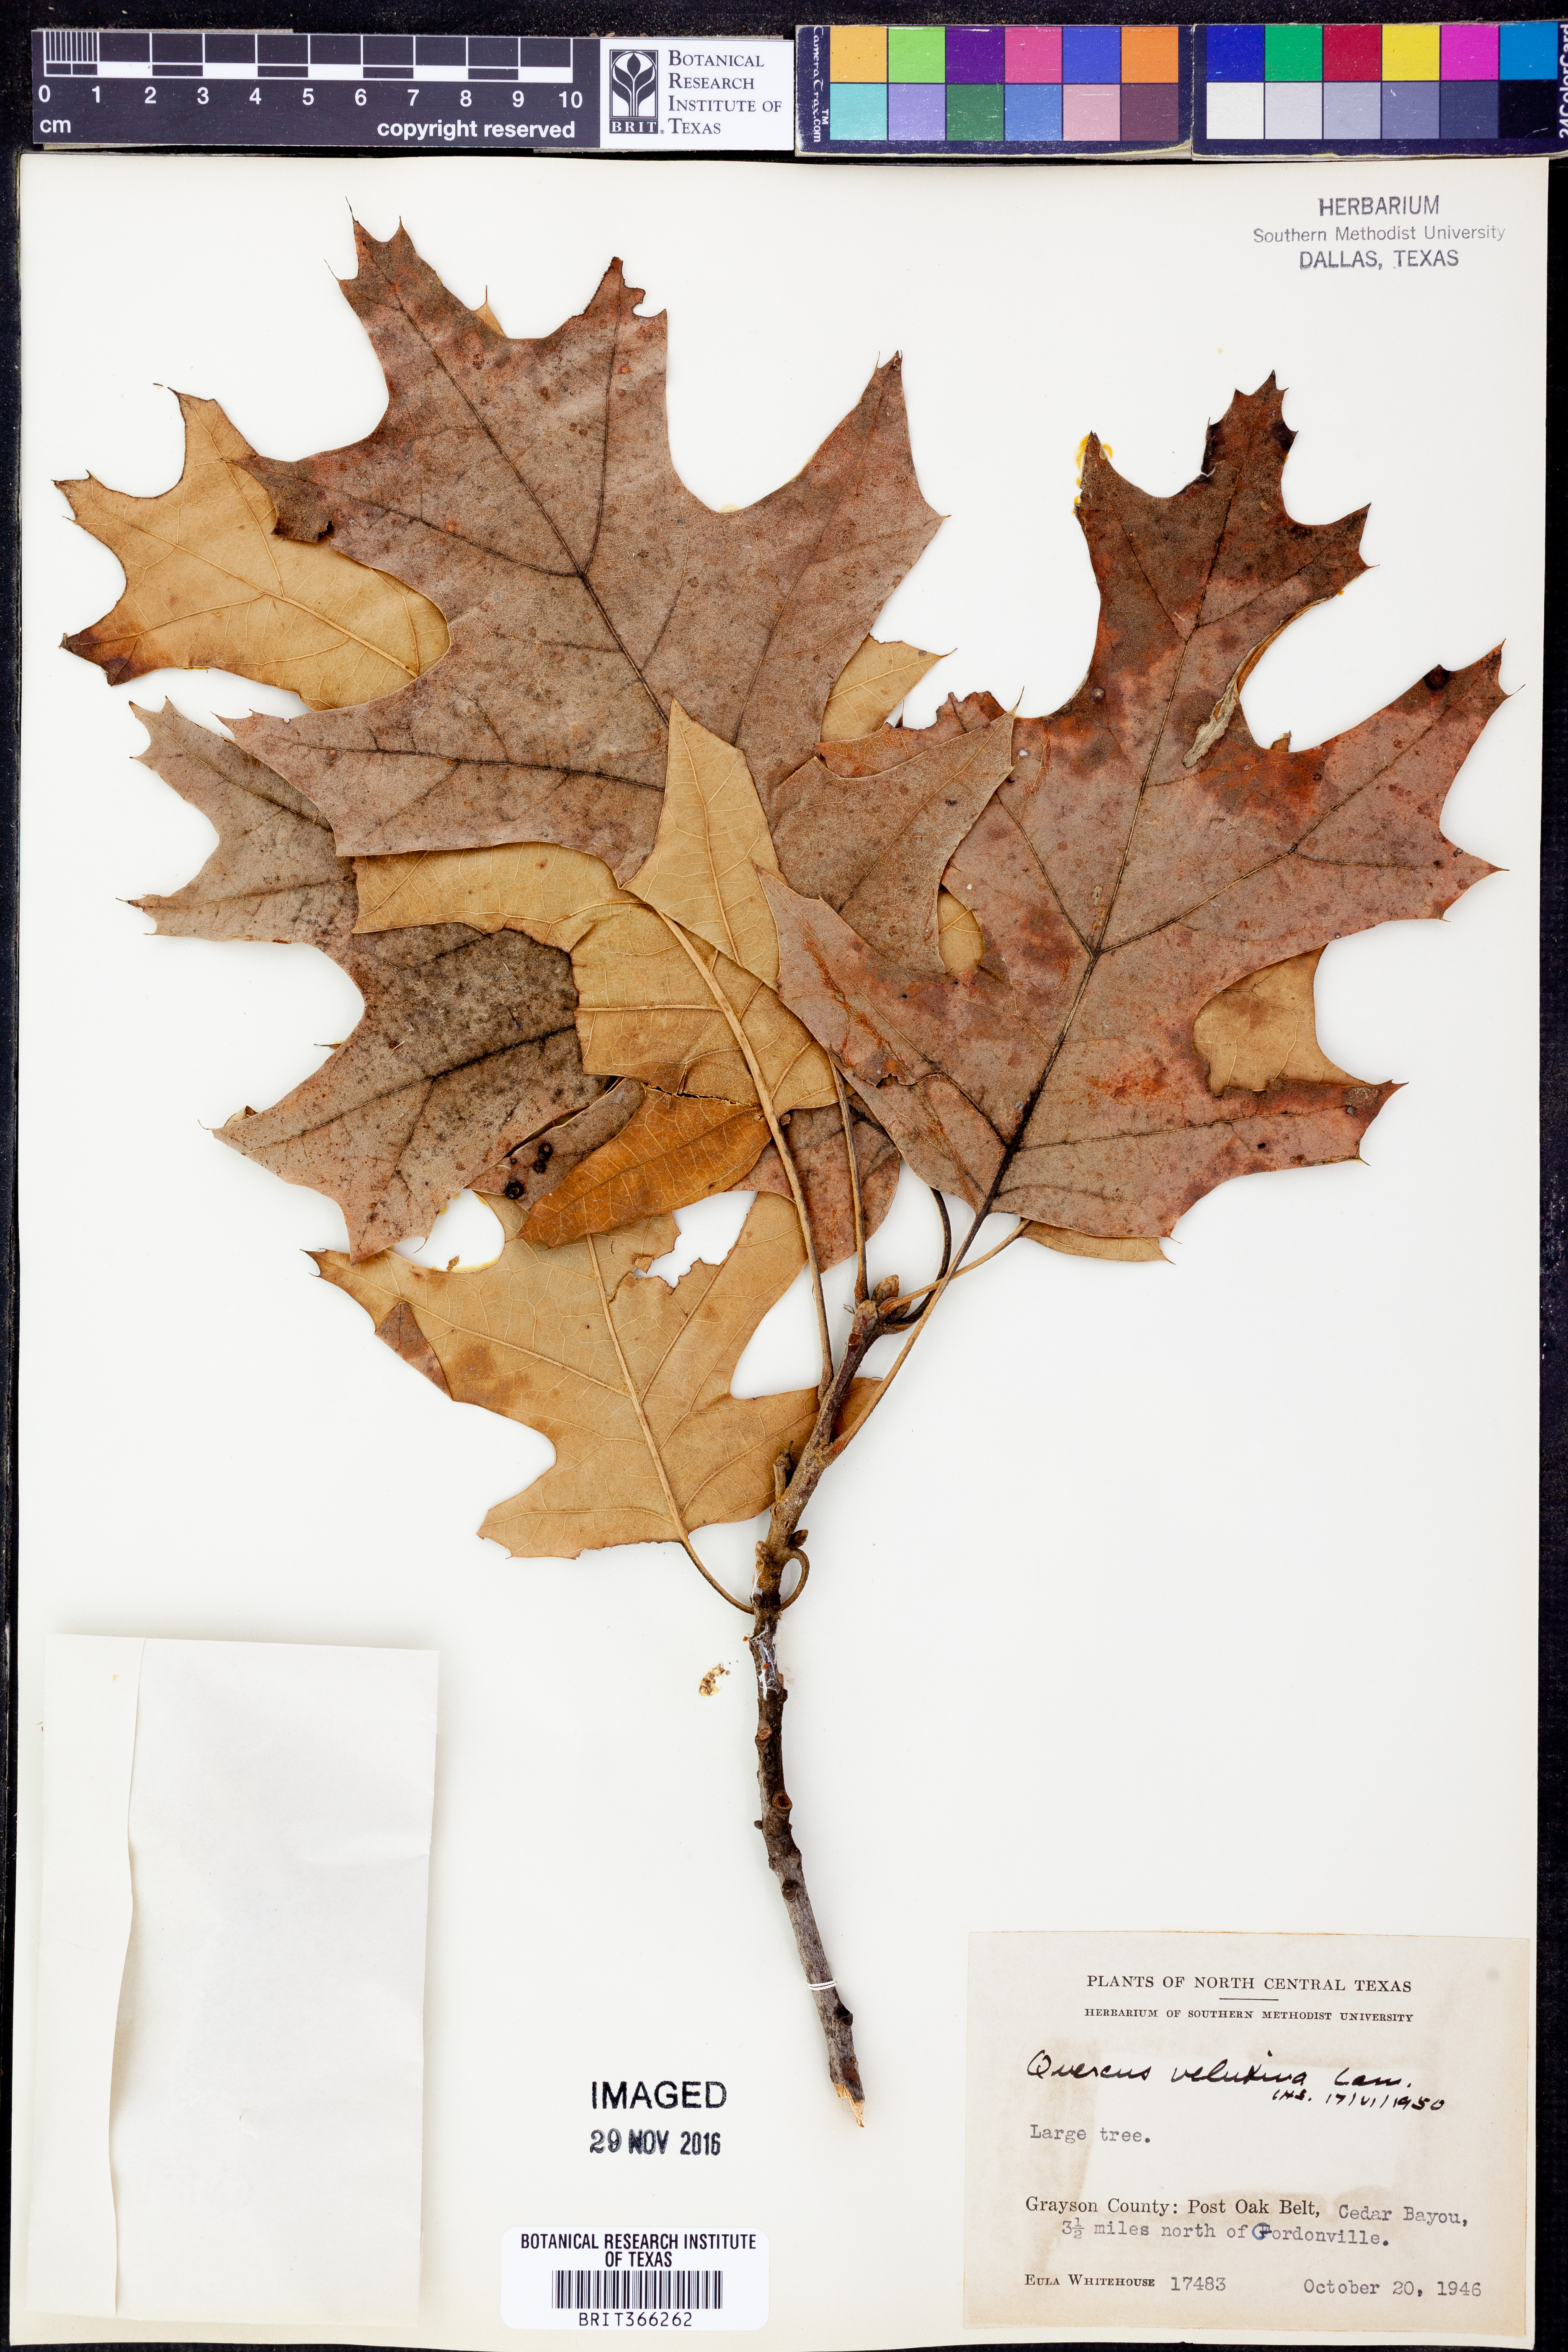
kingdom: Plantae
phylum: Tracheophyta
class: Magnoliopsida
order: Fagales
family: Fagaceae
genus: Quercus
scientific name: Quercus velutina
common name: Black oak
